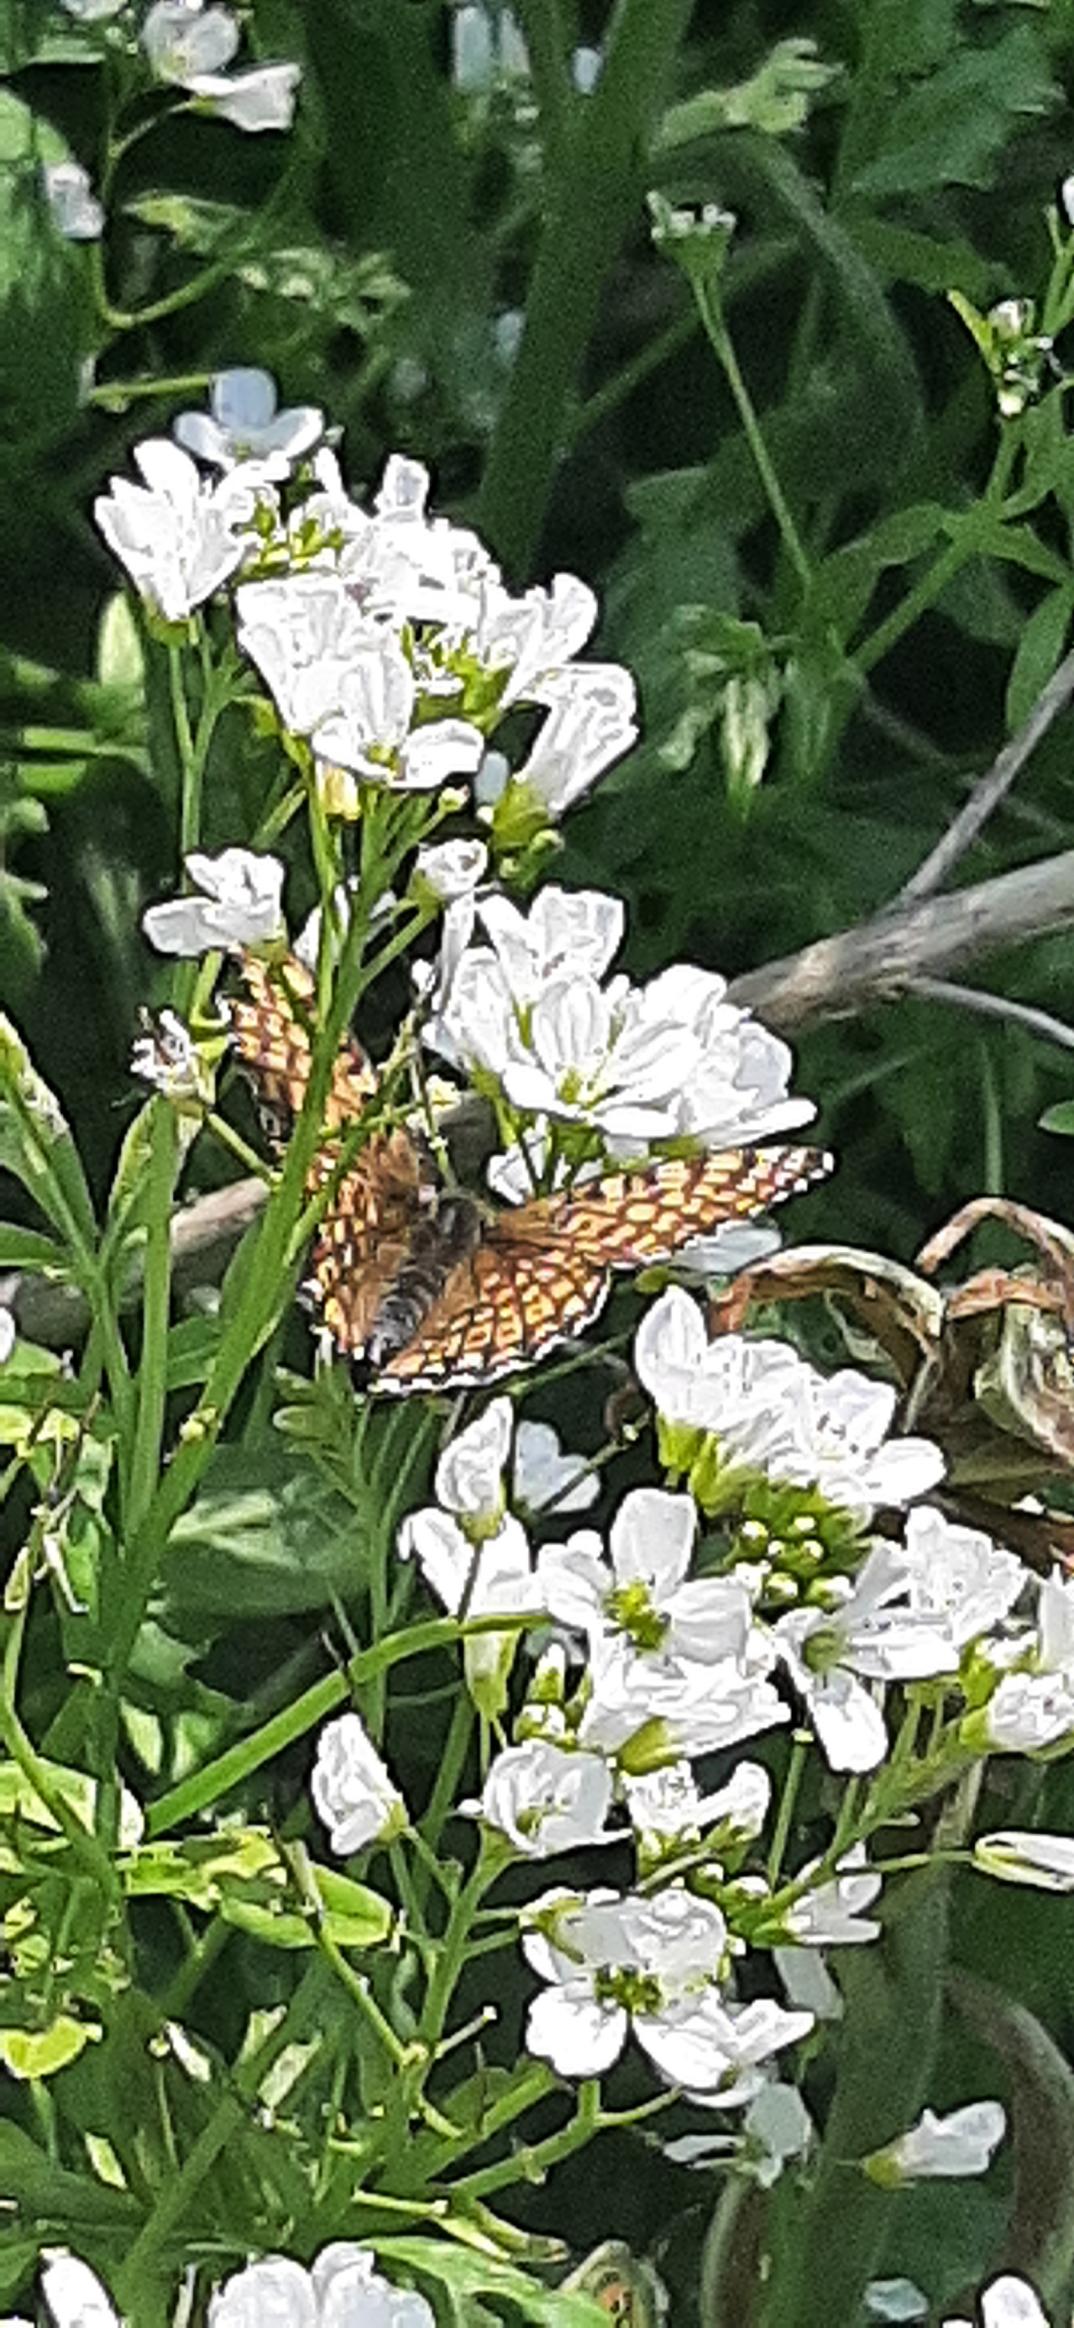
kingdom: Animalia
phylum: Arthropoda
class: Insecta
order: Lepidoptera
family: Nymphalidae
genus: Melitaea
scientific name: Melitaea cinxia
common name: Okkergul pletvinge
